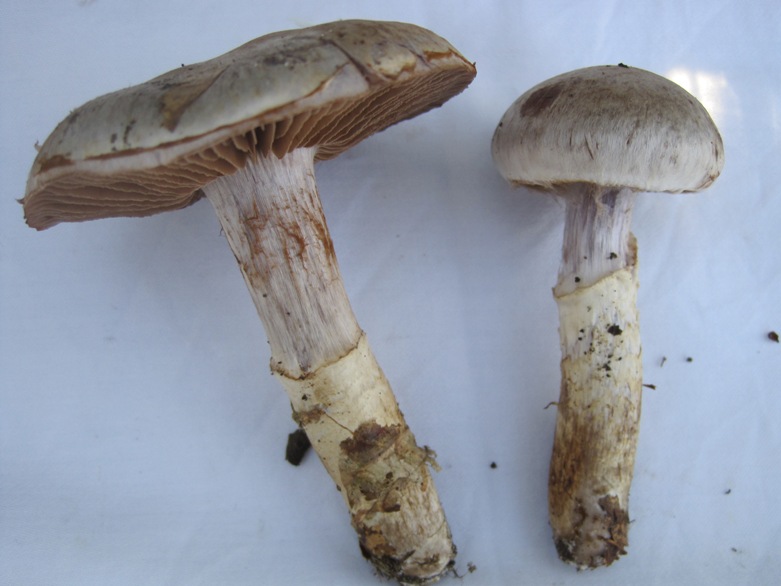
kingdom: Fungi
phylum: Basidiomycota
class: Agaricomycetes
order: Agaricales
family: Cortinariaceae
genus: Cortinarius
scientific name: Cortinarius torvus
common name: champignonagtig slørhat
